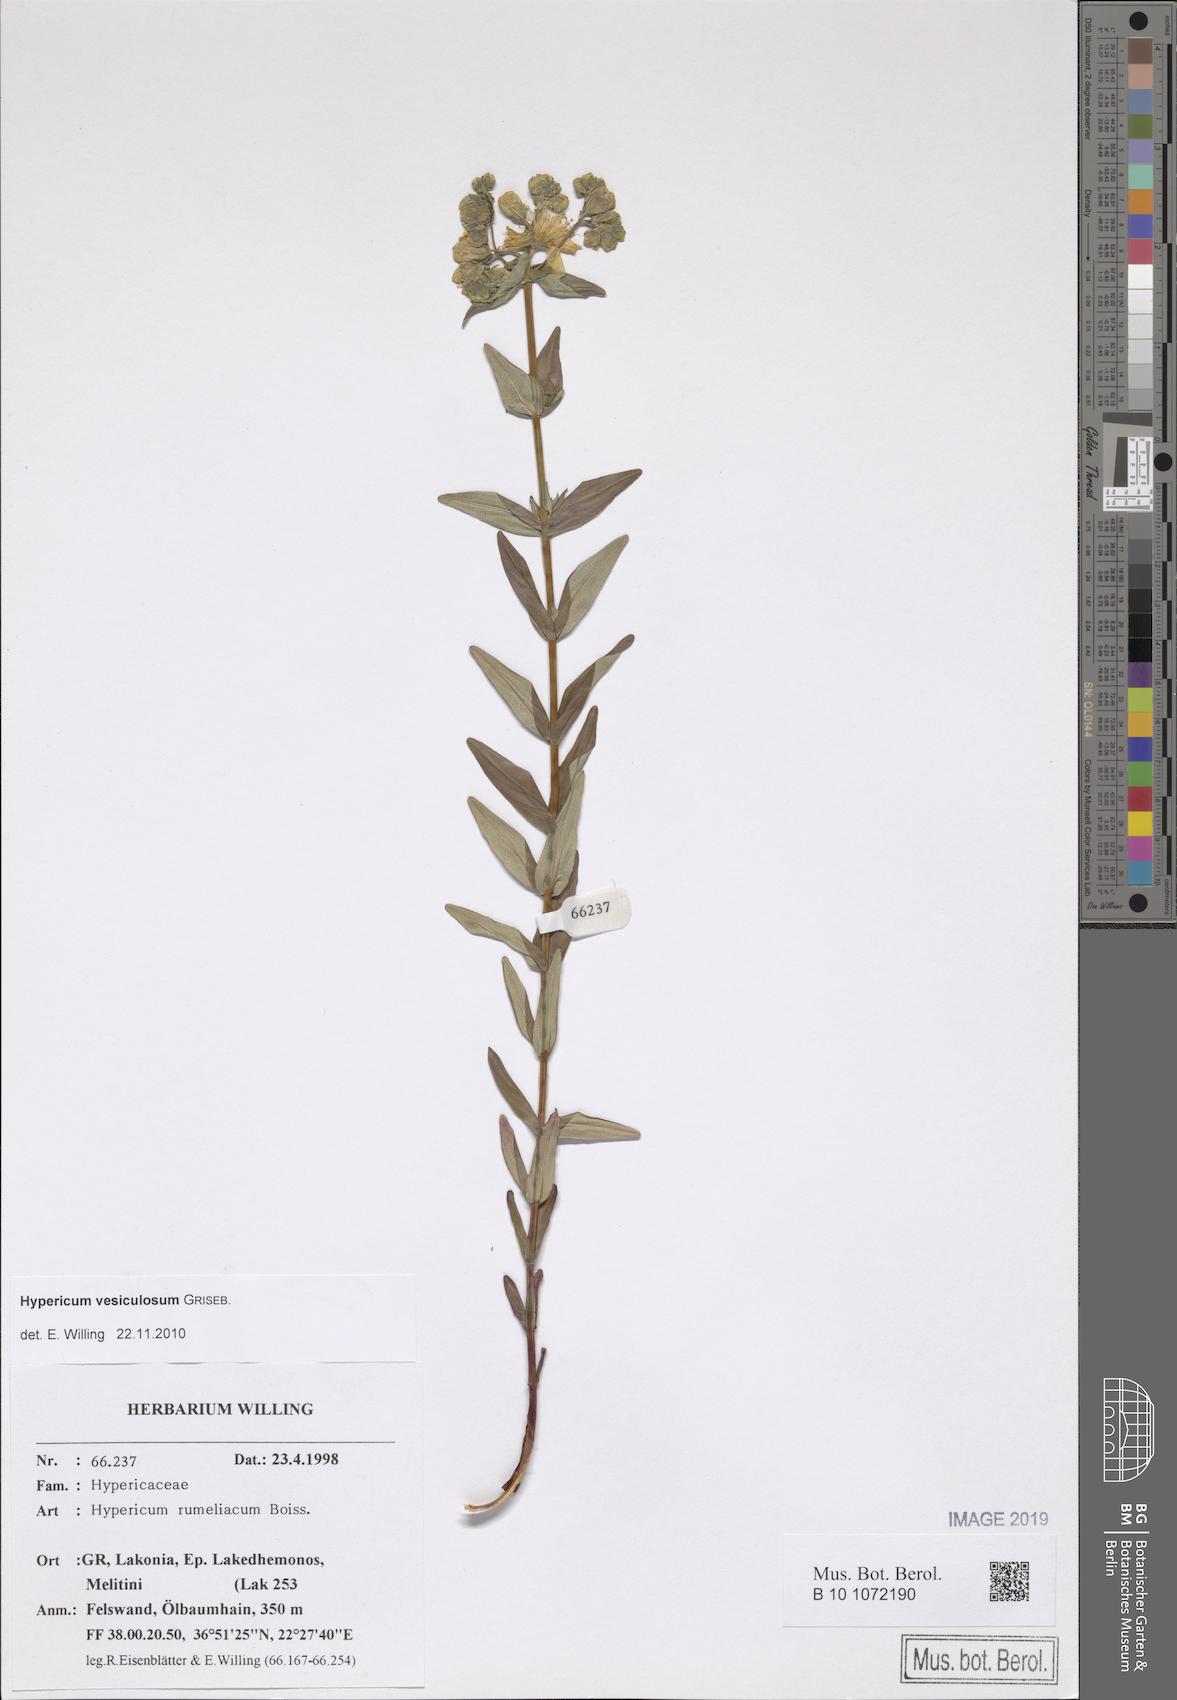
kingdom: Plantae
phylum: Tracheophyta
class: Magnoliopsida
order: Malpighiales
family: Hypericaceae
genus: Hypericum
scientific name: Hypericum perfoliatum
